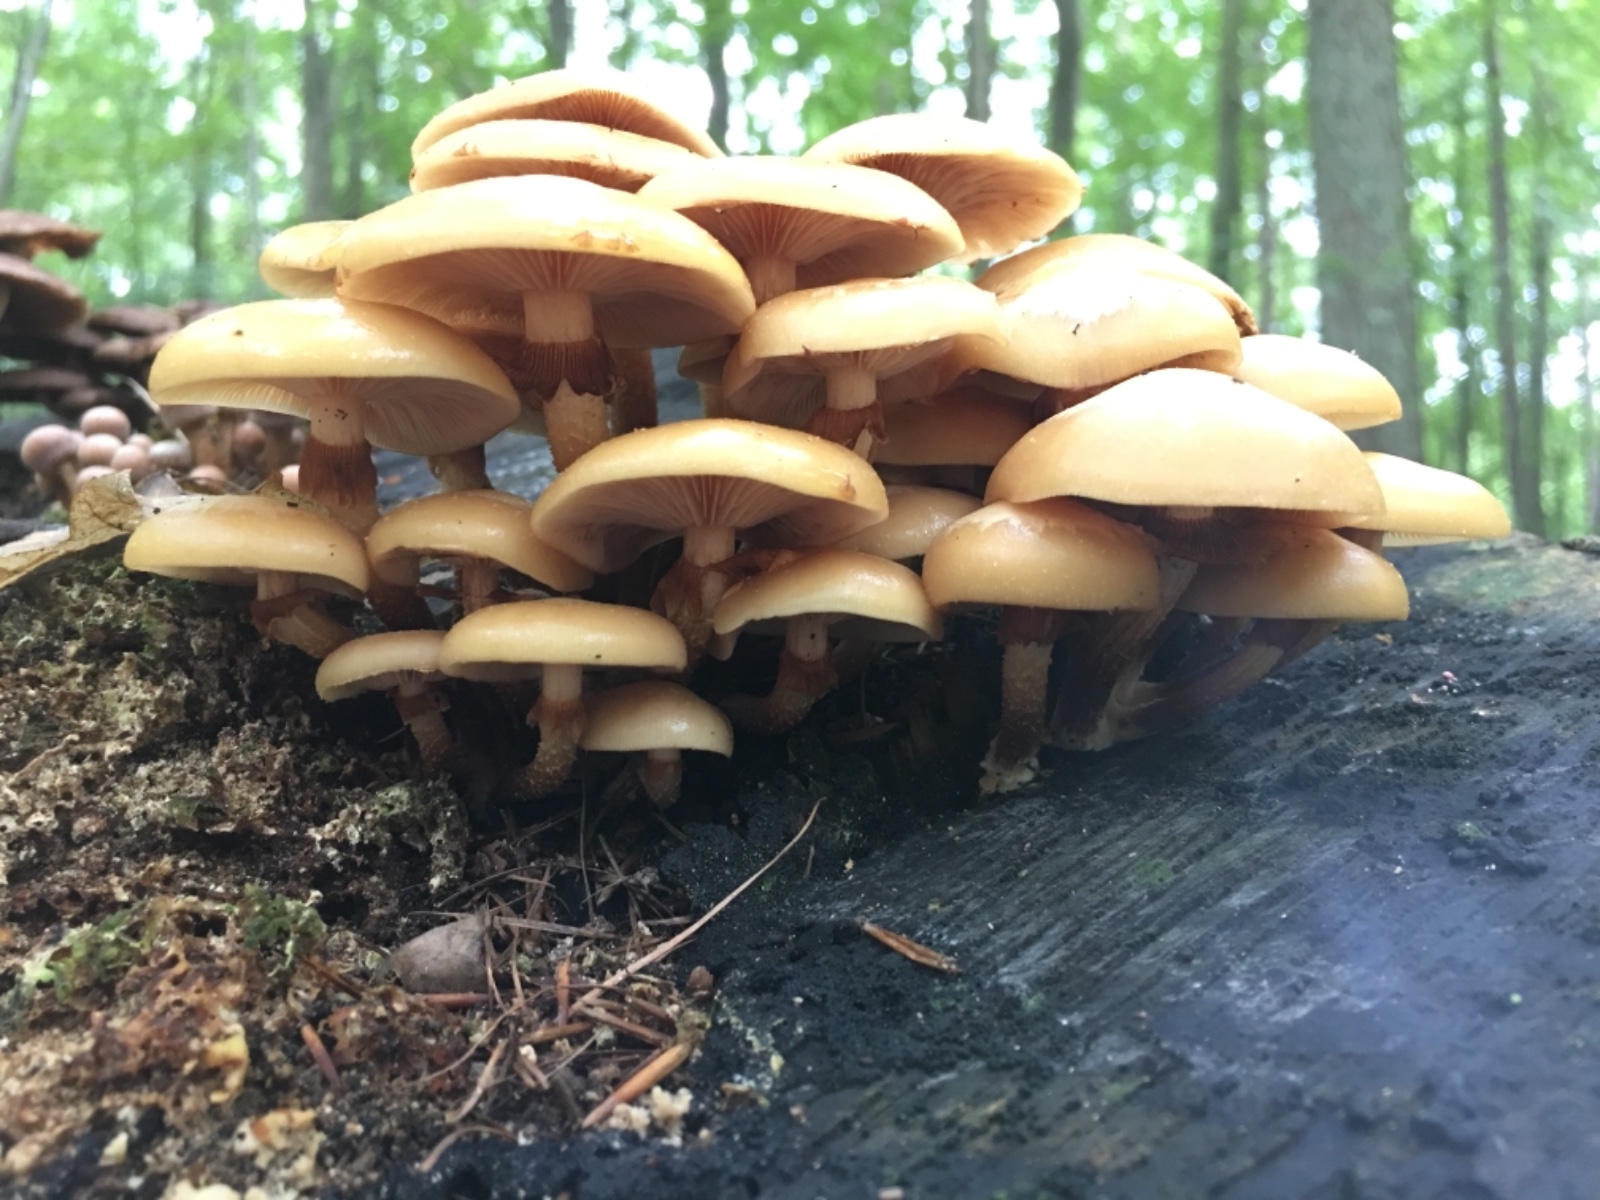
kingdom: Fungi
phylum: Basidiomycota
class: Agaricomycetes
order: Agaricales
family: Strophariaceae
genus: Kuehneromyces
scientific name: Kuehneromyces mutabilis
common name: foranderlig skælhat
